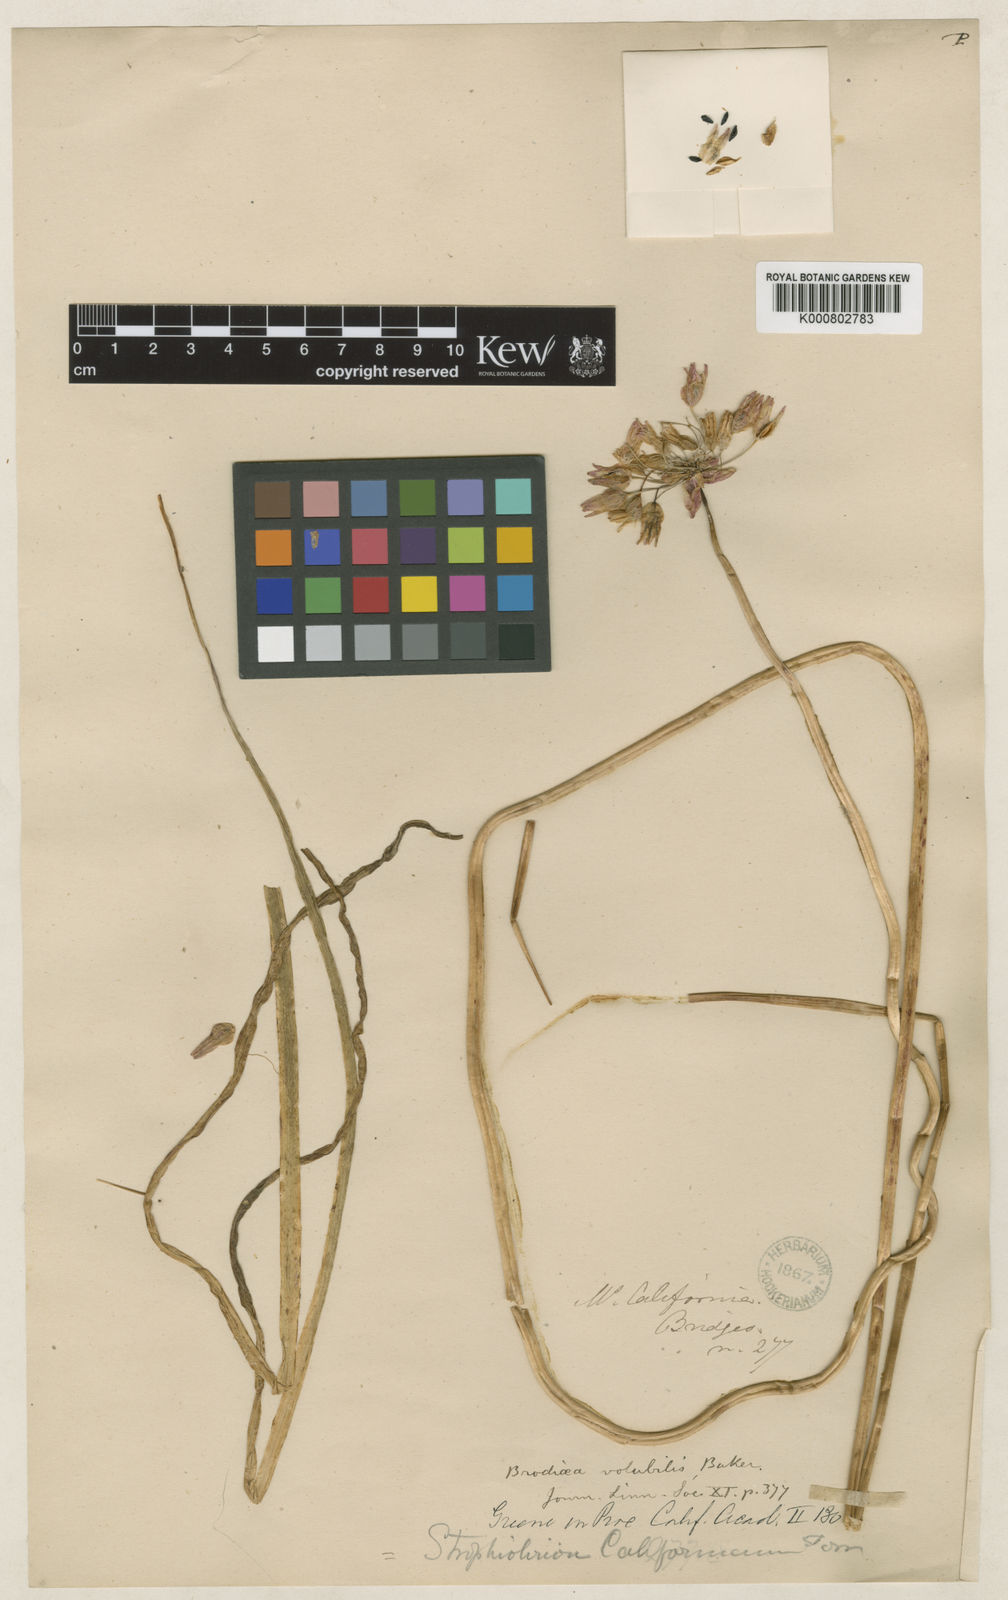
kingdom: Plantae
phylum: Tracheophyta
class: Liliopsida
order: Asparagales
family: Asparagaceae
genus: Dichelostemma
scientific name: Dichelostemma
